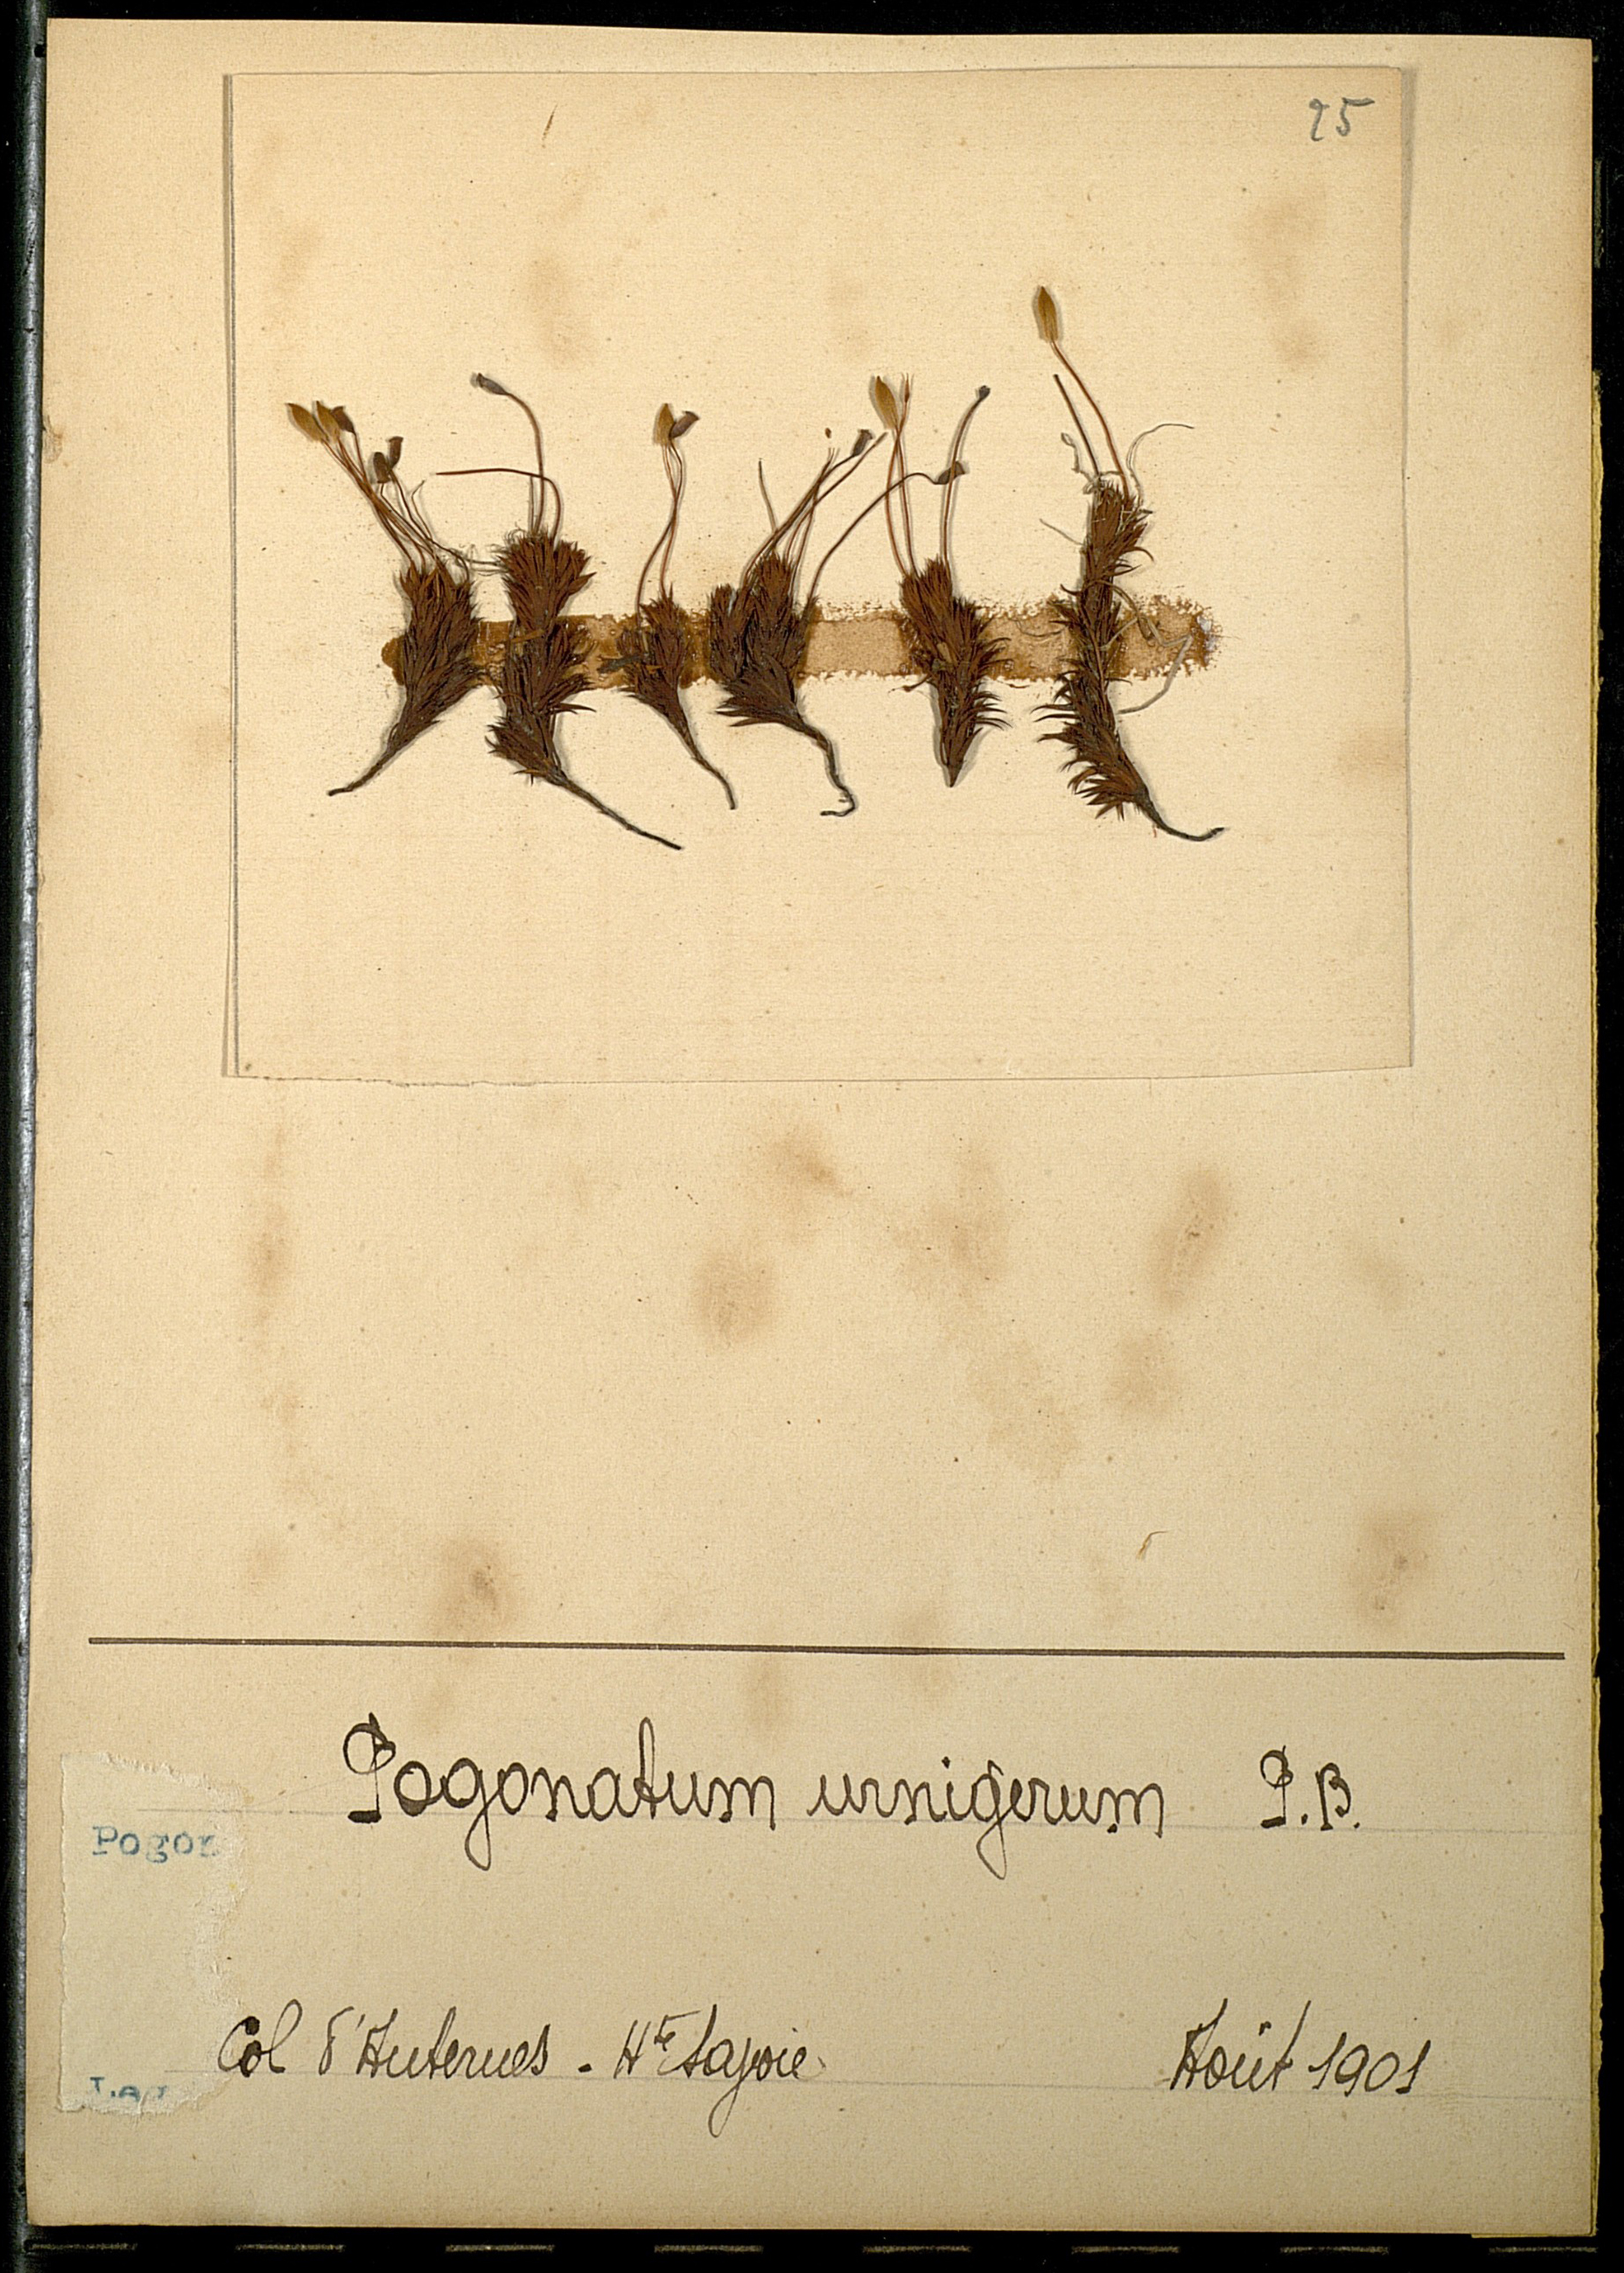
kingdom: Plantae
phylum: Bryophyta
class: Polytrichopsida
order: Polytrichales
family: Polytrichaceae
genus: Pogonatum
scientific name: Pogonatum urnigerum
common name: Urn hair moss
